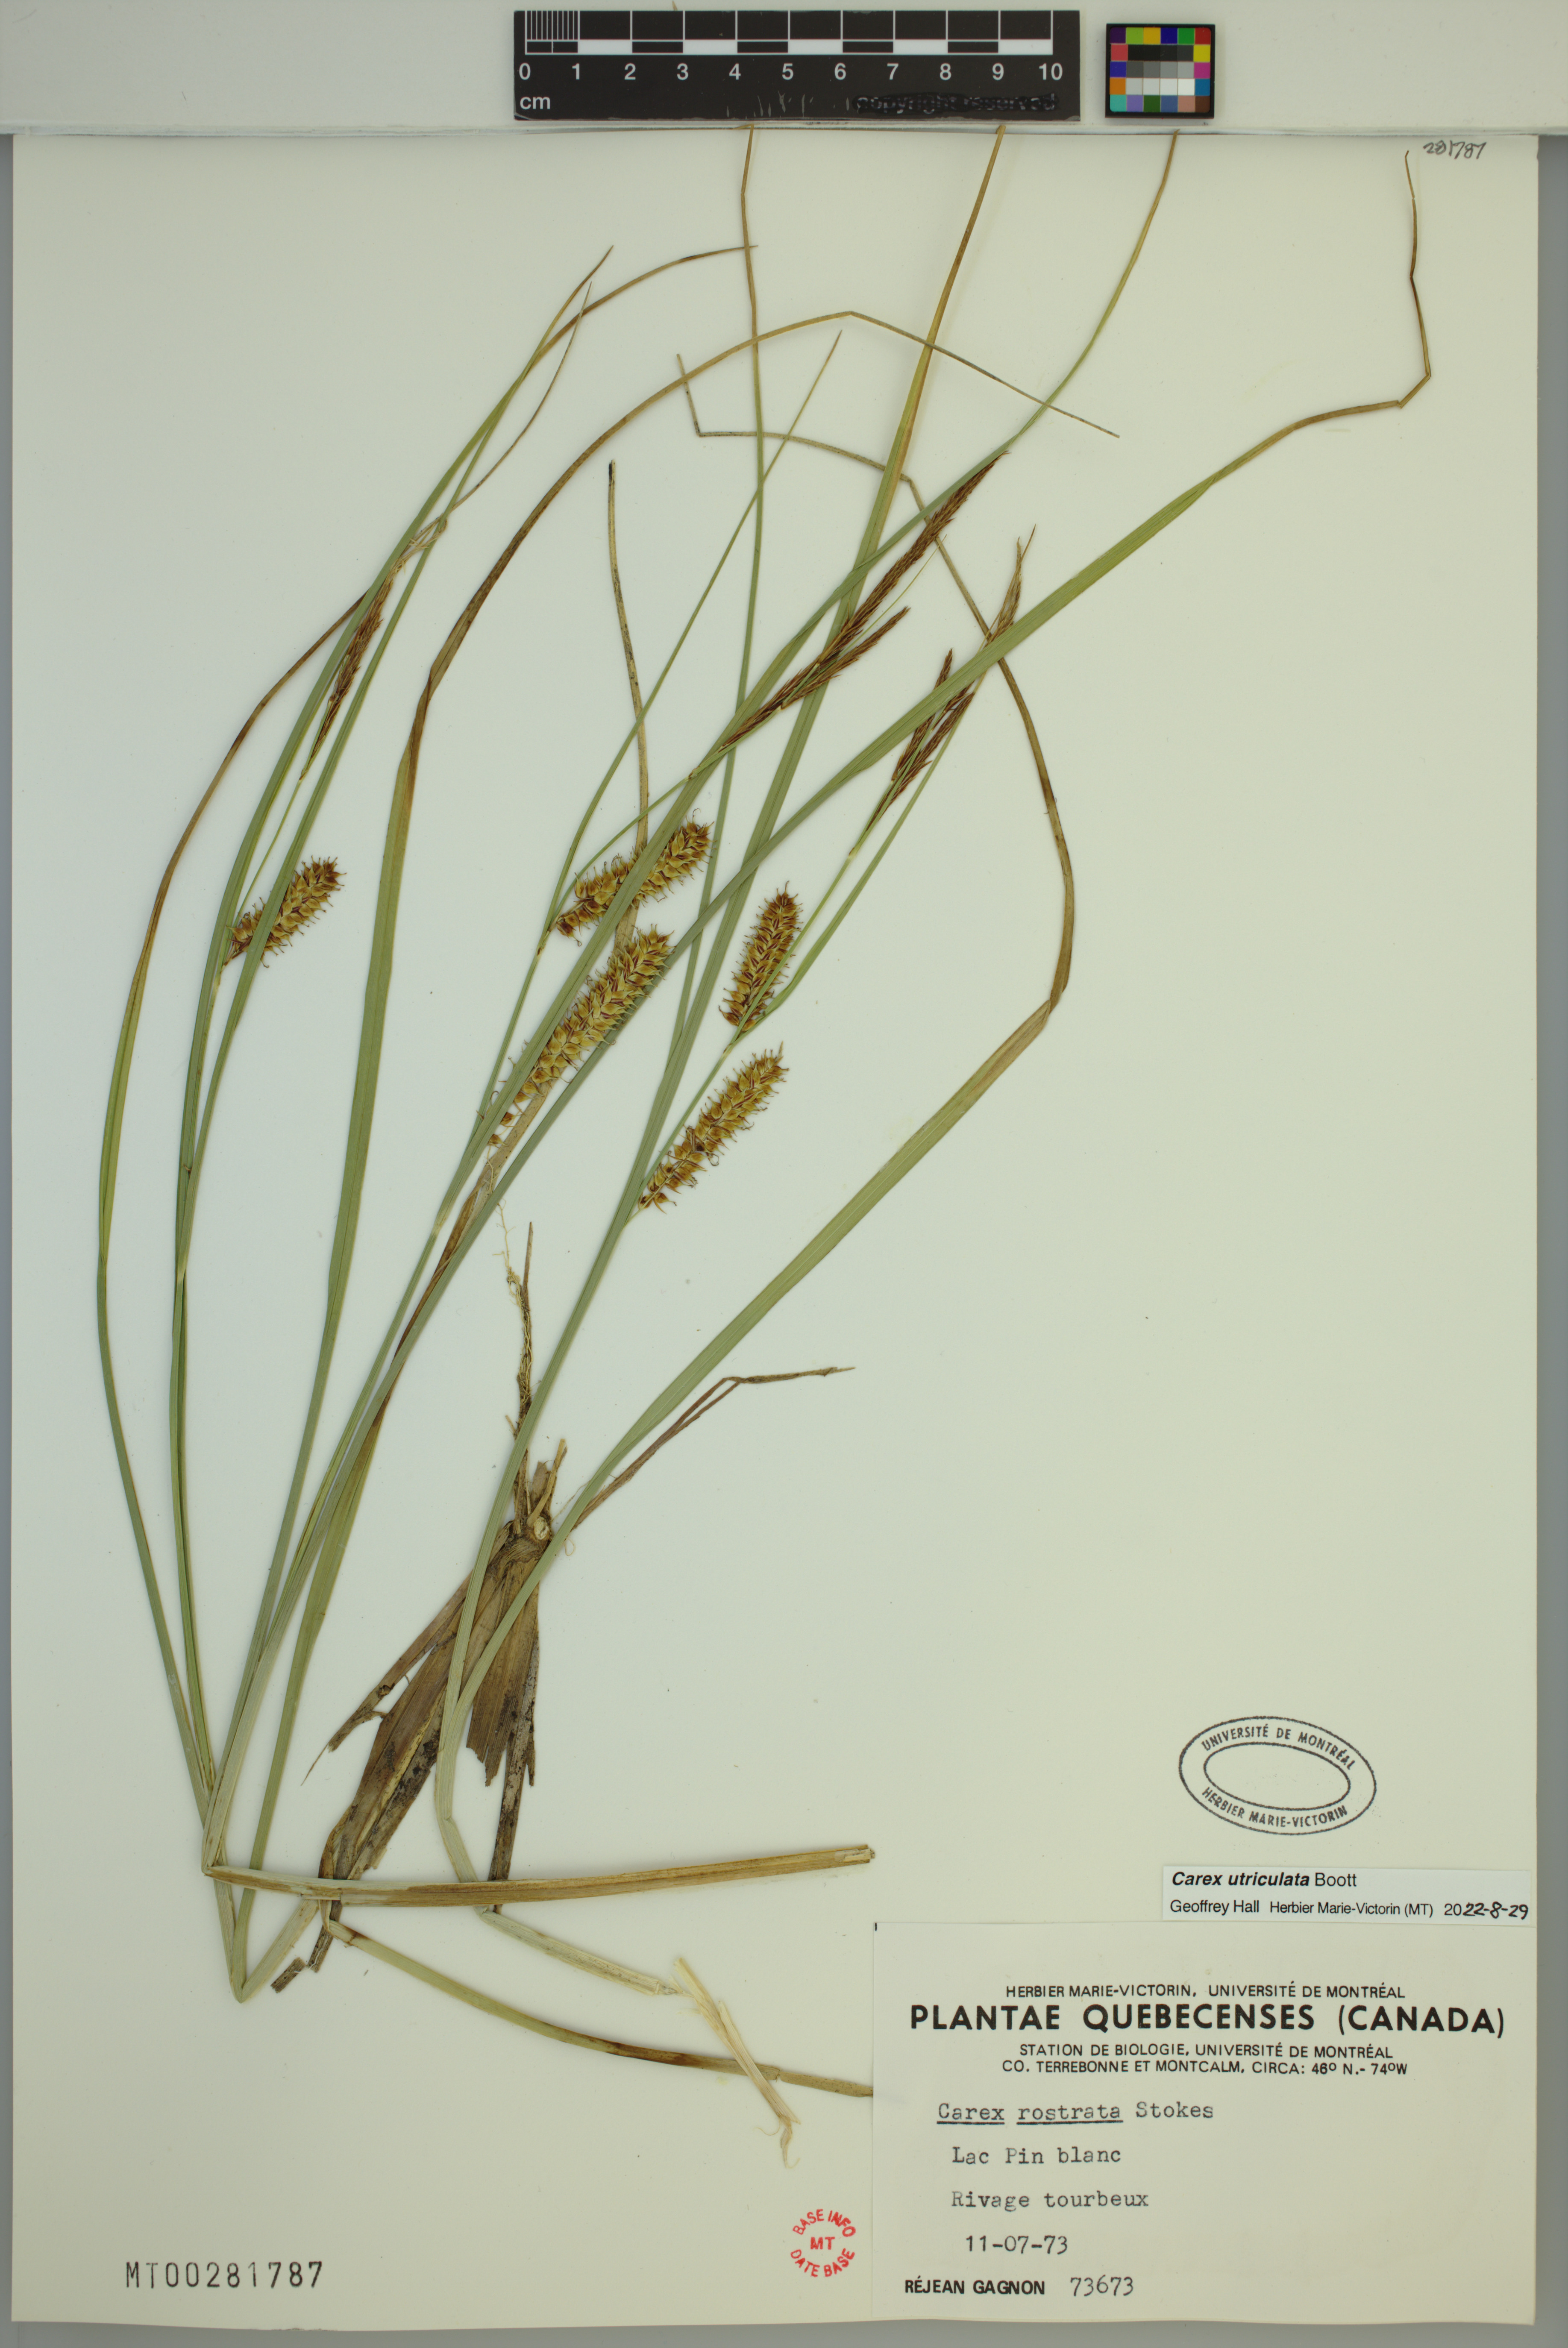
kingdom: Plantae
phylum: Tracheophyta
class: Liliopsida
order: Poales
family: Cyperaceae
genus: Carex
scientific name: Carex utriculata
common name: Beaked sedge
